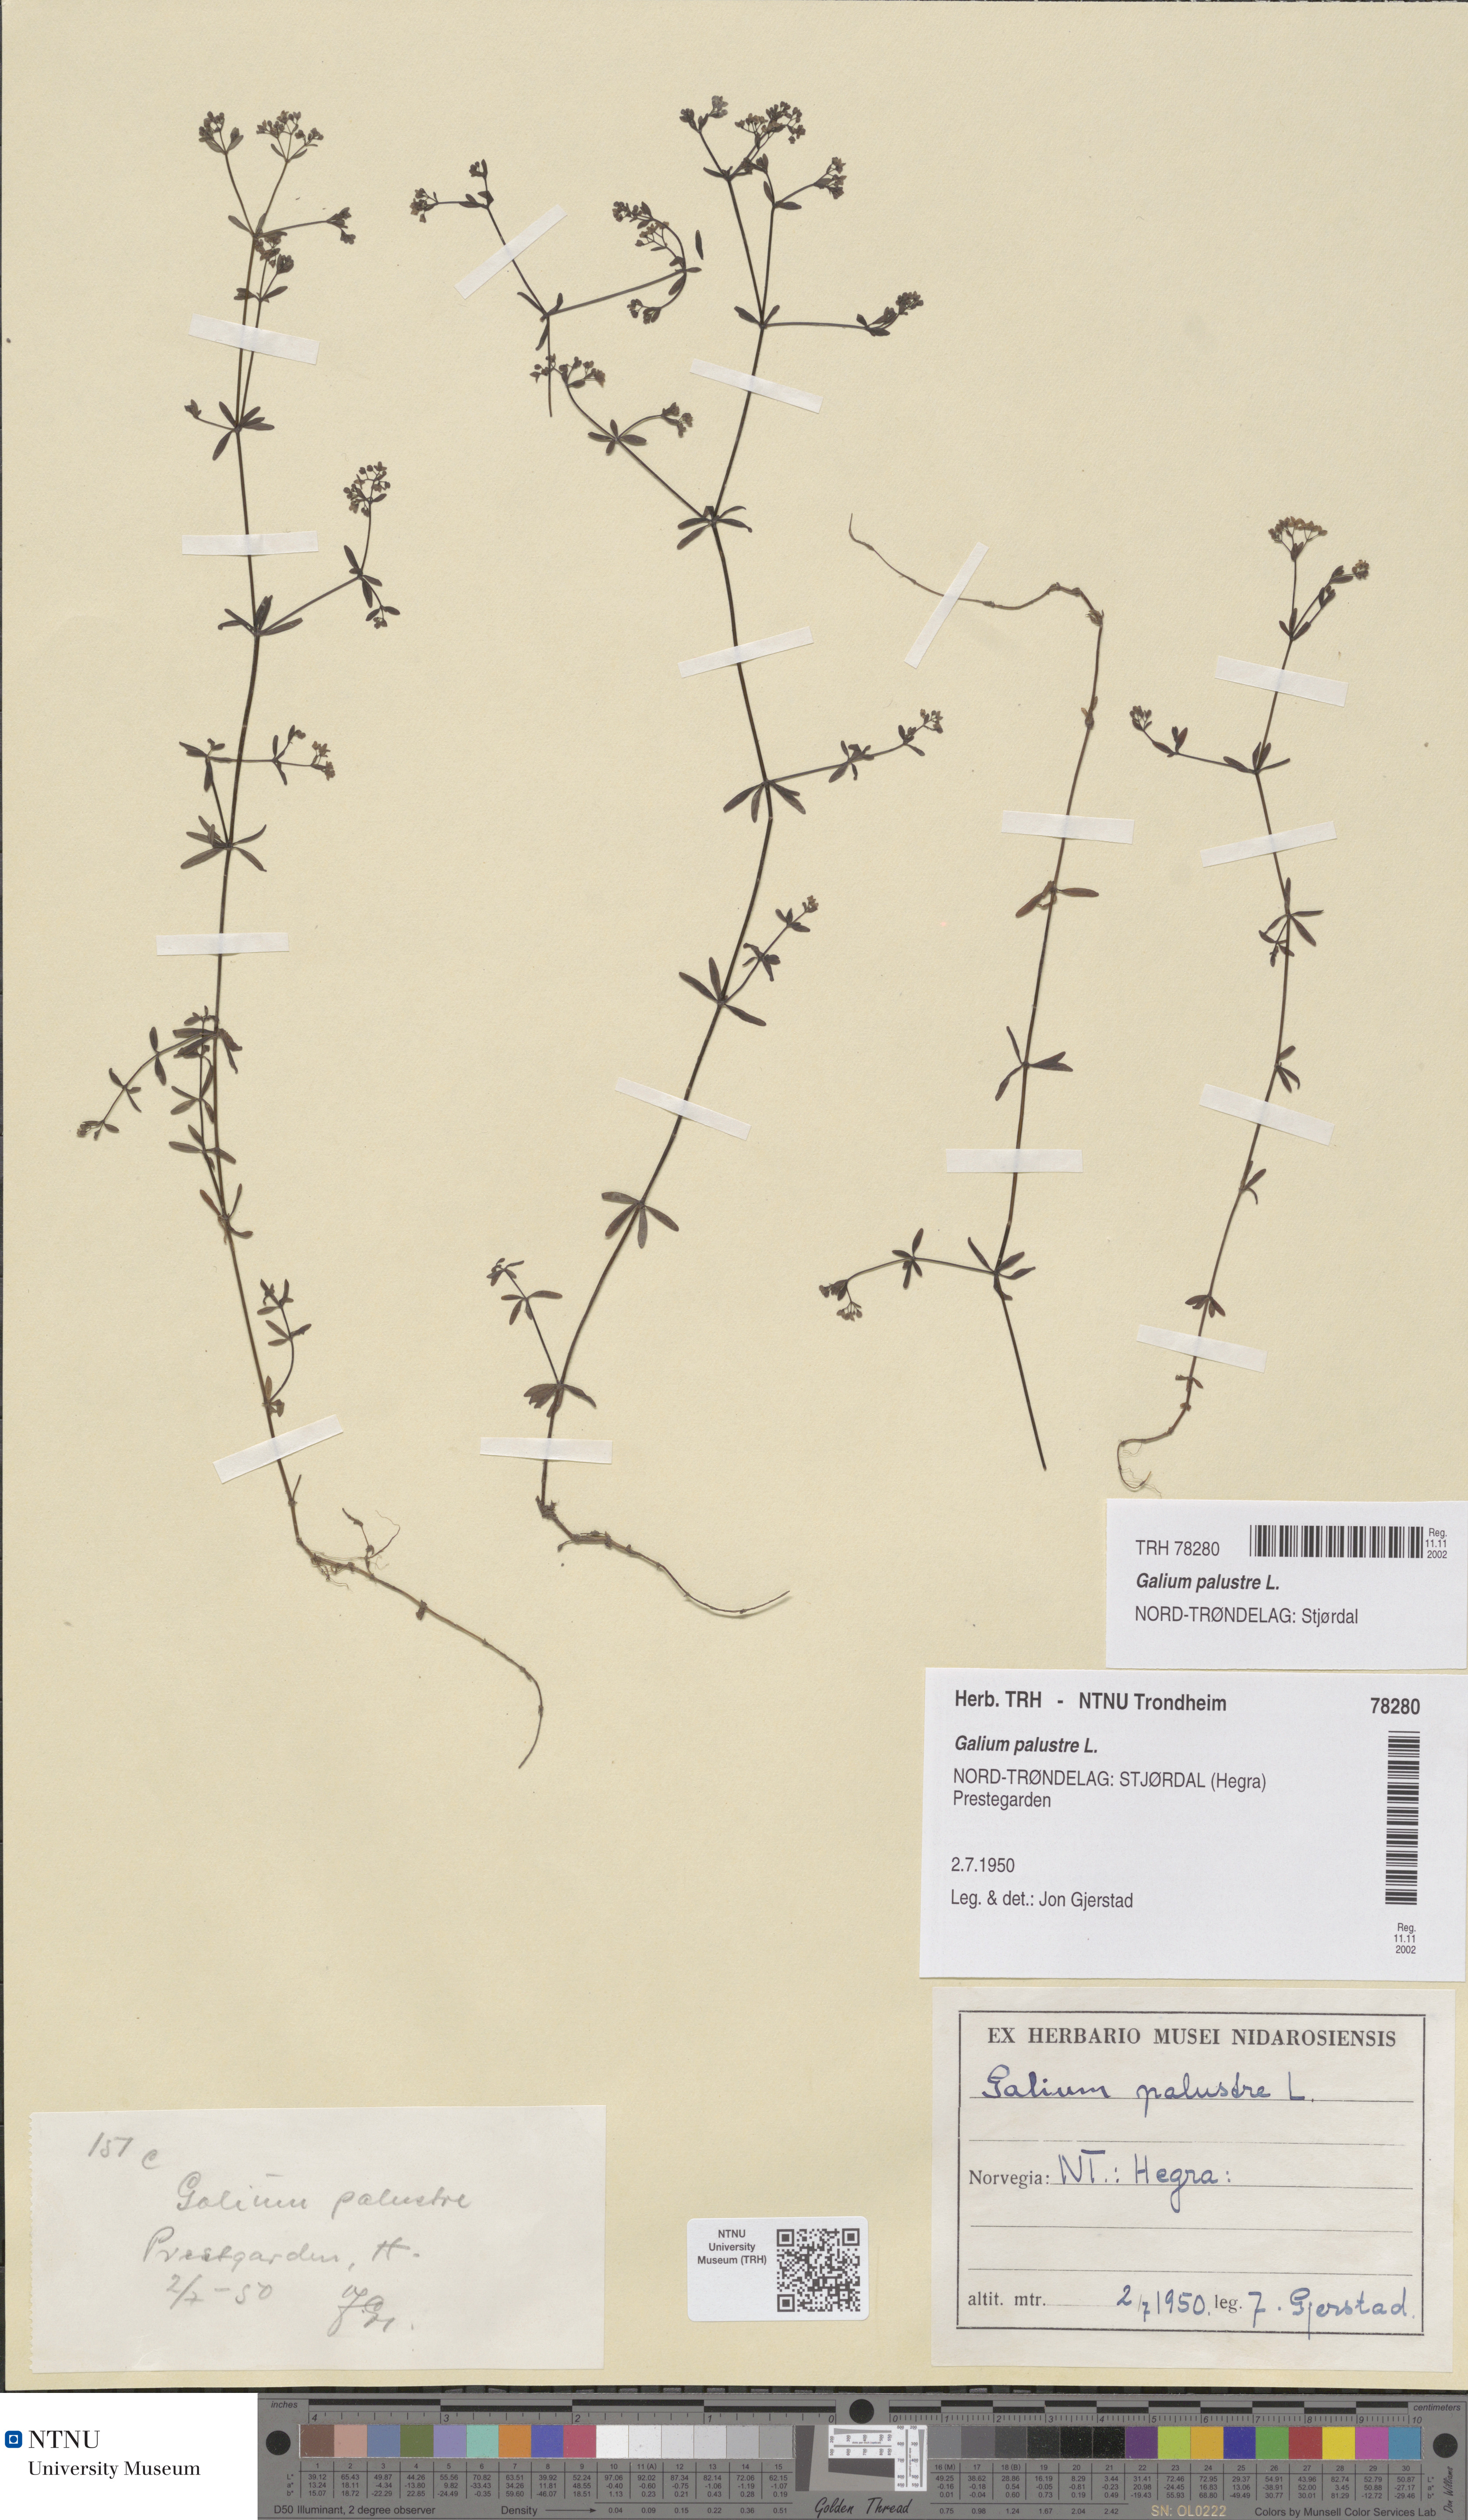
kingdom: Plantae
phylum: Tracheophyta
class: Magnoliopsida
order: Gentianales
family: Rubiaceae
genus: Galium
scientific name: Galium palustre
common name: Common marsh-bedstraw
